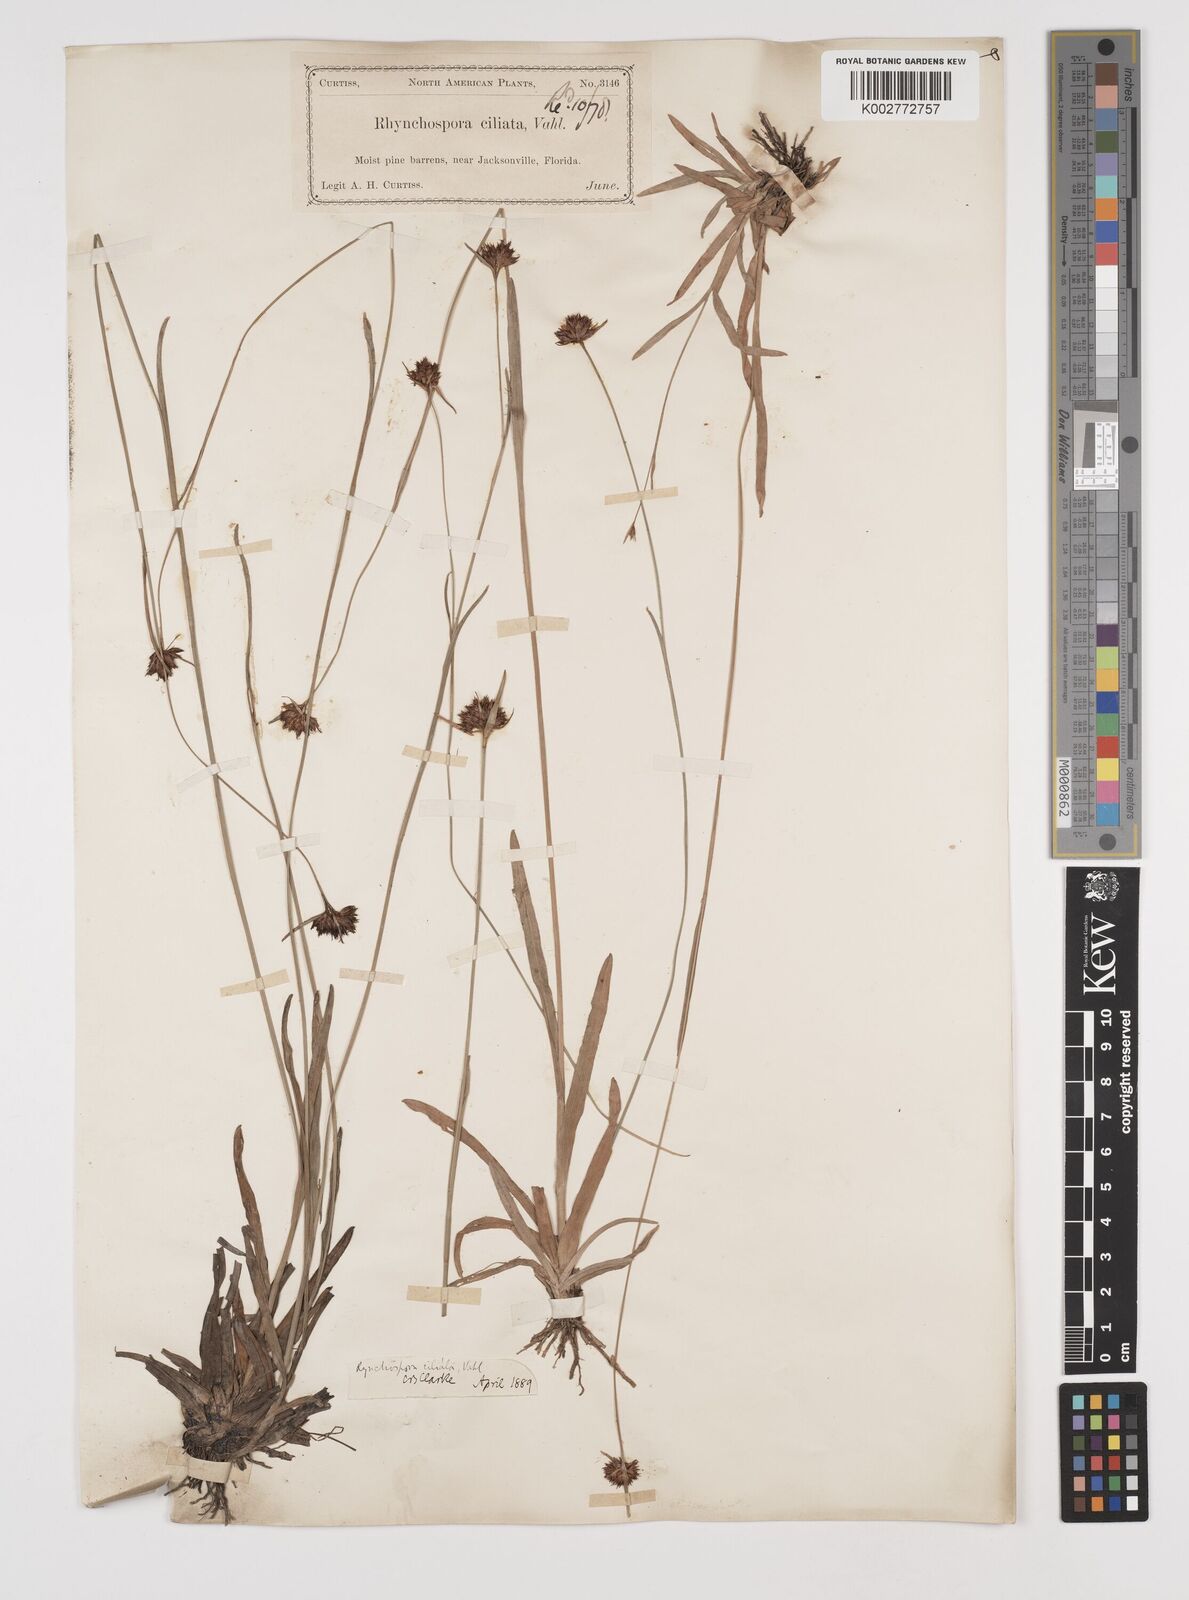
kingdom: Plantae
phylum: Tracheophyta
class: Liliopsida
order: Poales
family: Cyperaceae
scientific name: Cyperaceae
